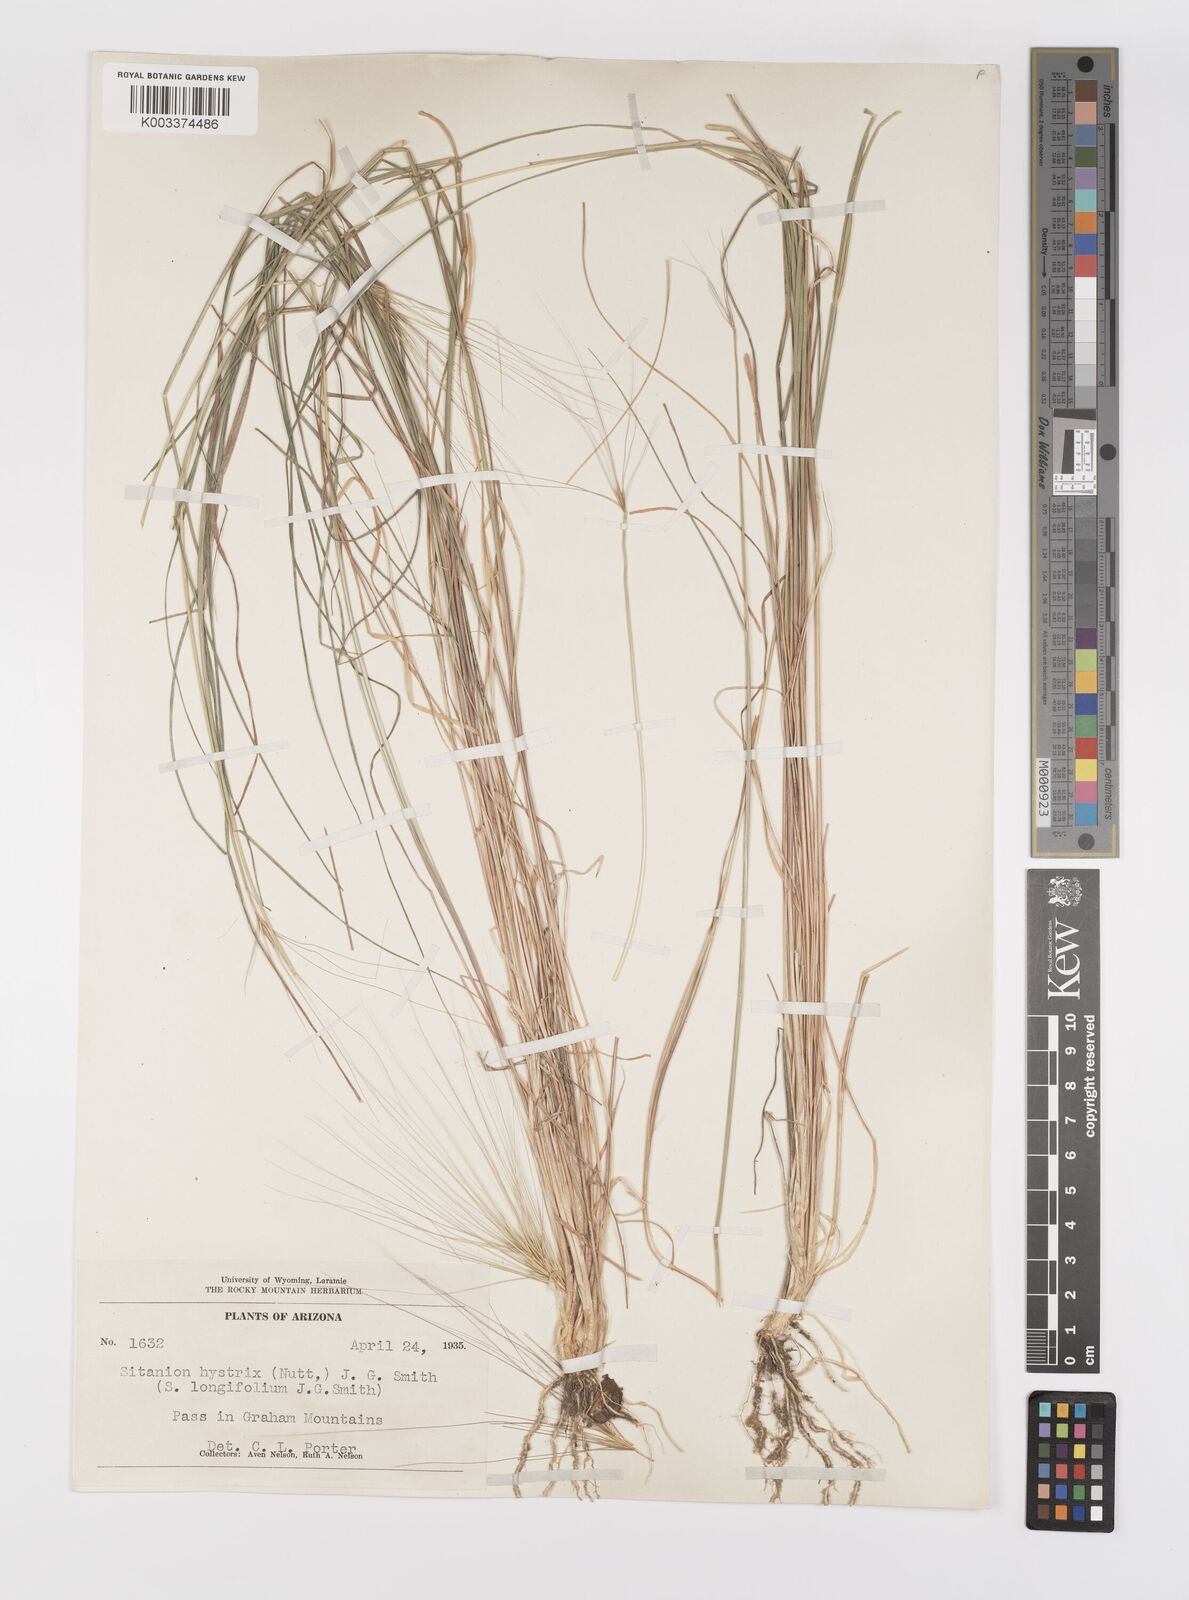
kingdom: Plantae
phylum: Tracheophyta
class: Liliopsida
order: Poales
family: Poaceae
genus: Elymus
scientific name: Elymus elymoides
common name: Bottlebrush squirreltail
